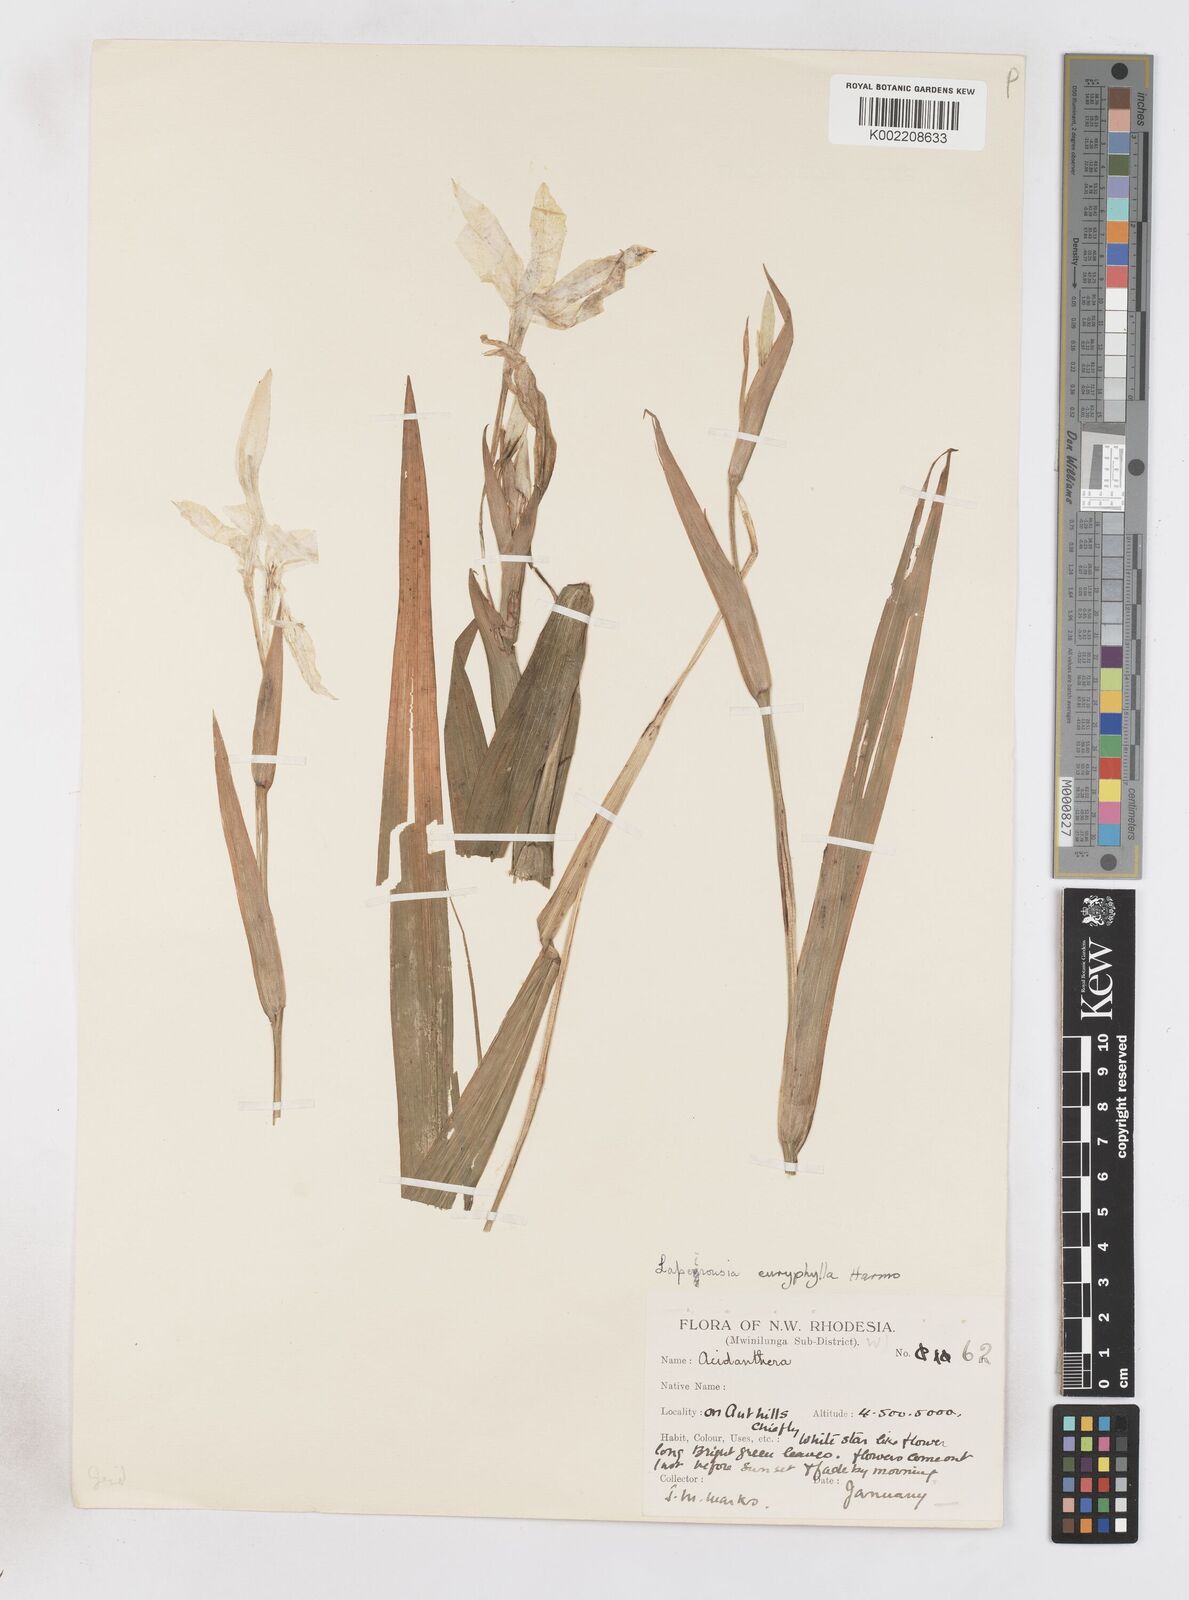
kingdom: Plantae
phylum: Tracheophyta
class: Liliopsida
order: Asparagales
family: Iridaceae
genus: Savannosiphon
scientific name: Savannosiphon euryphylla
